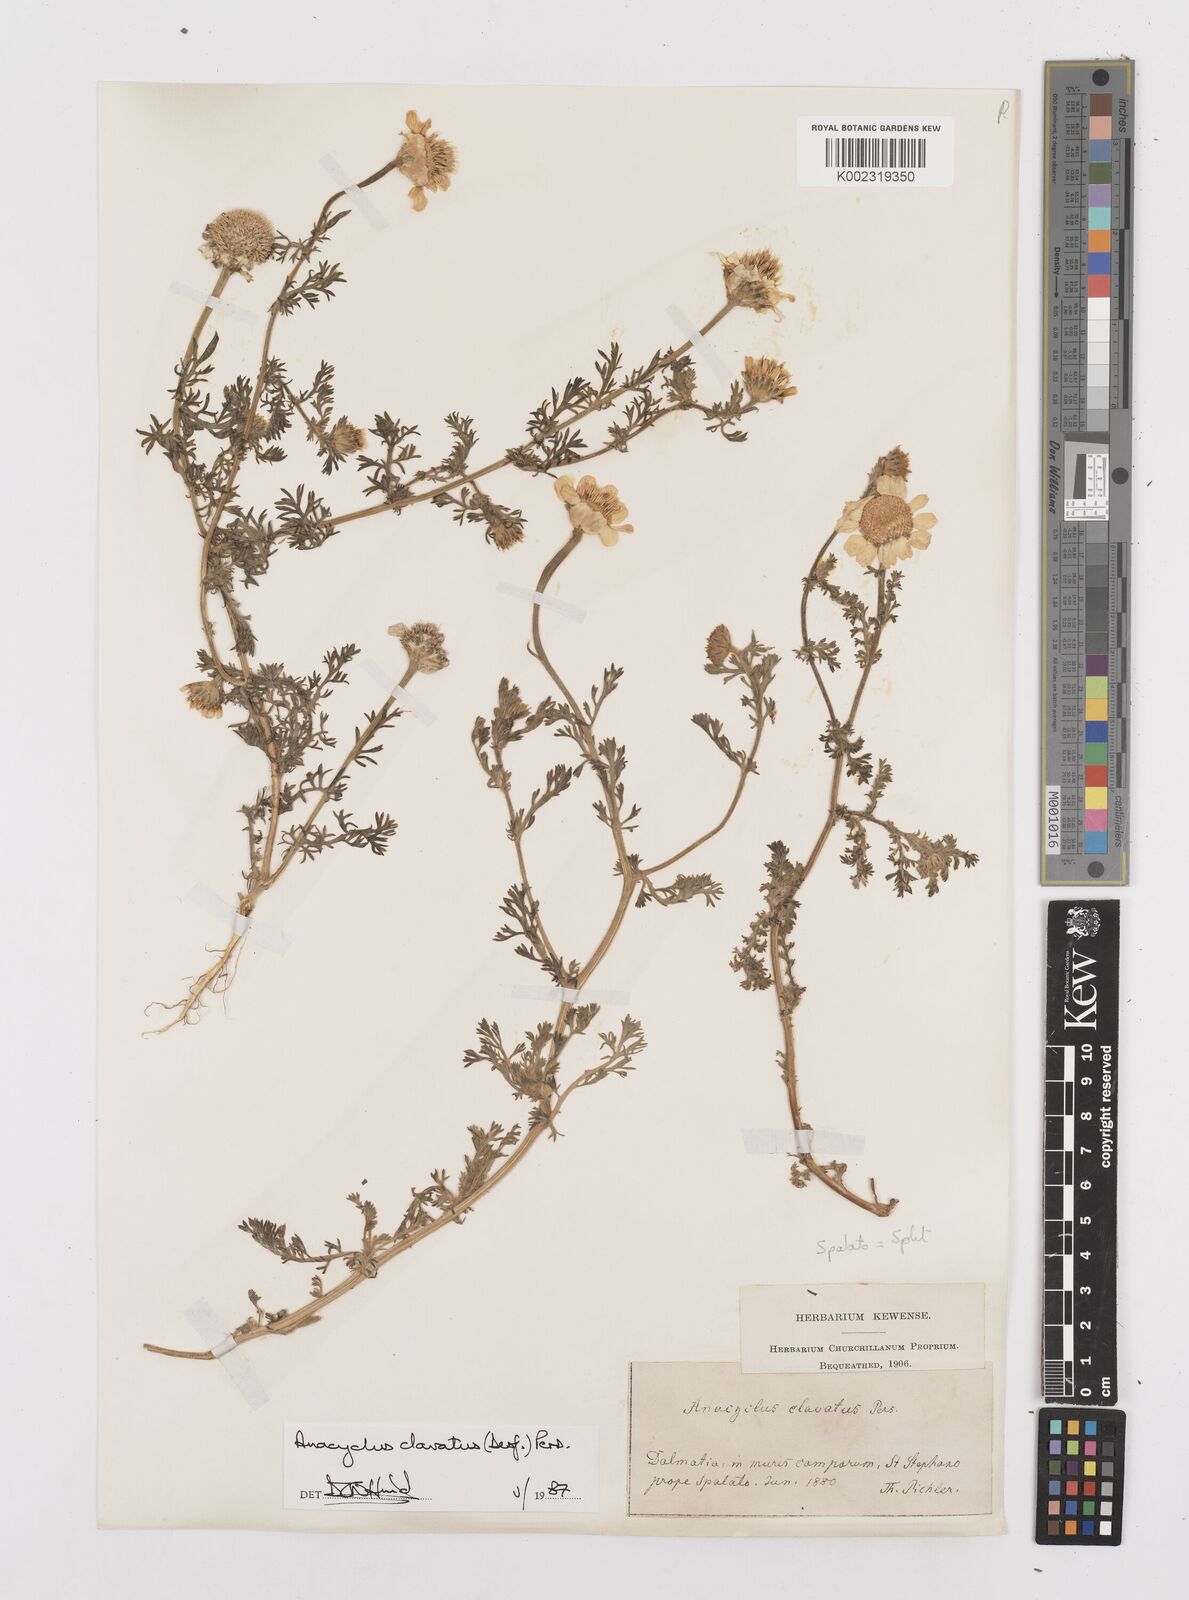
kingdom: Plantae
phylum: Tracheophyta
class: Magnoliopsida
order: Asterales
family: Asteraceae
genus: Anacyclus
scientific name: Anacyclus clavatus
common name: Whitebuttons
